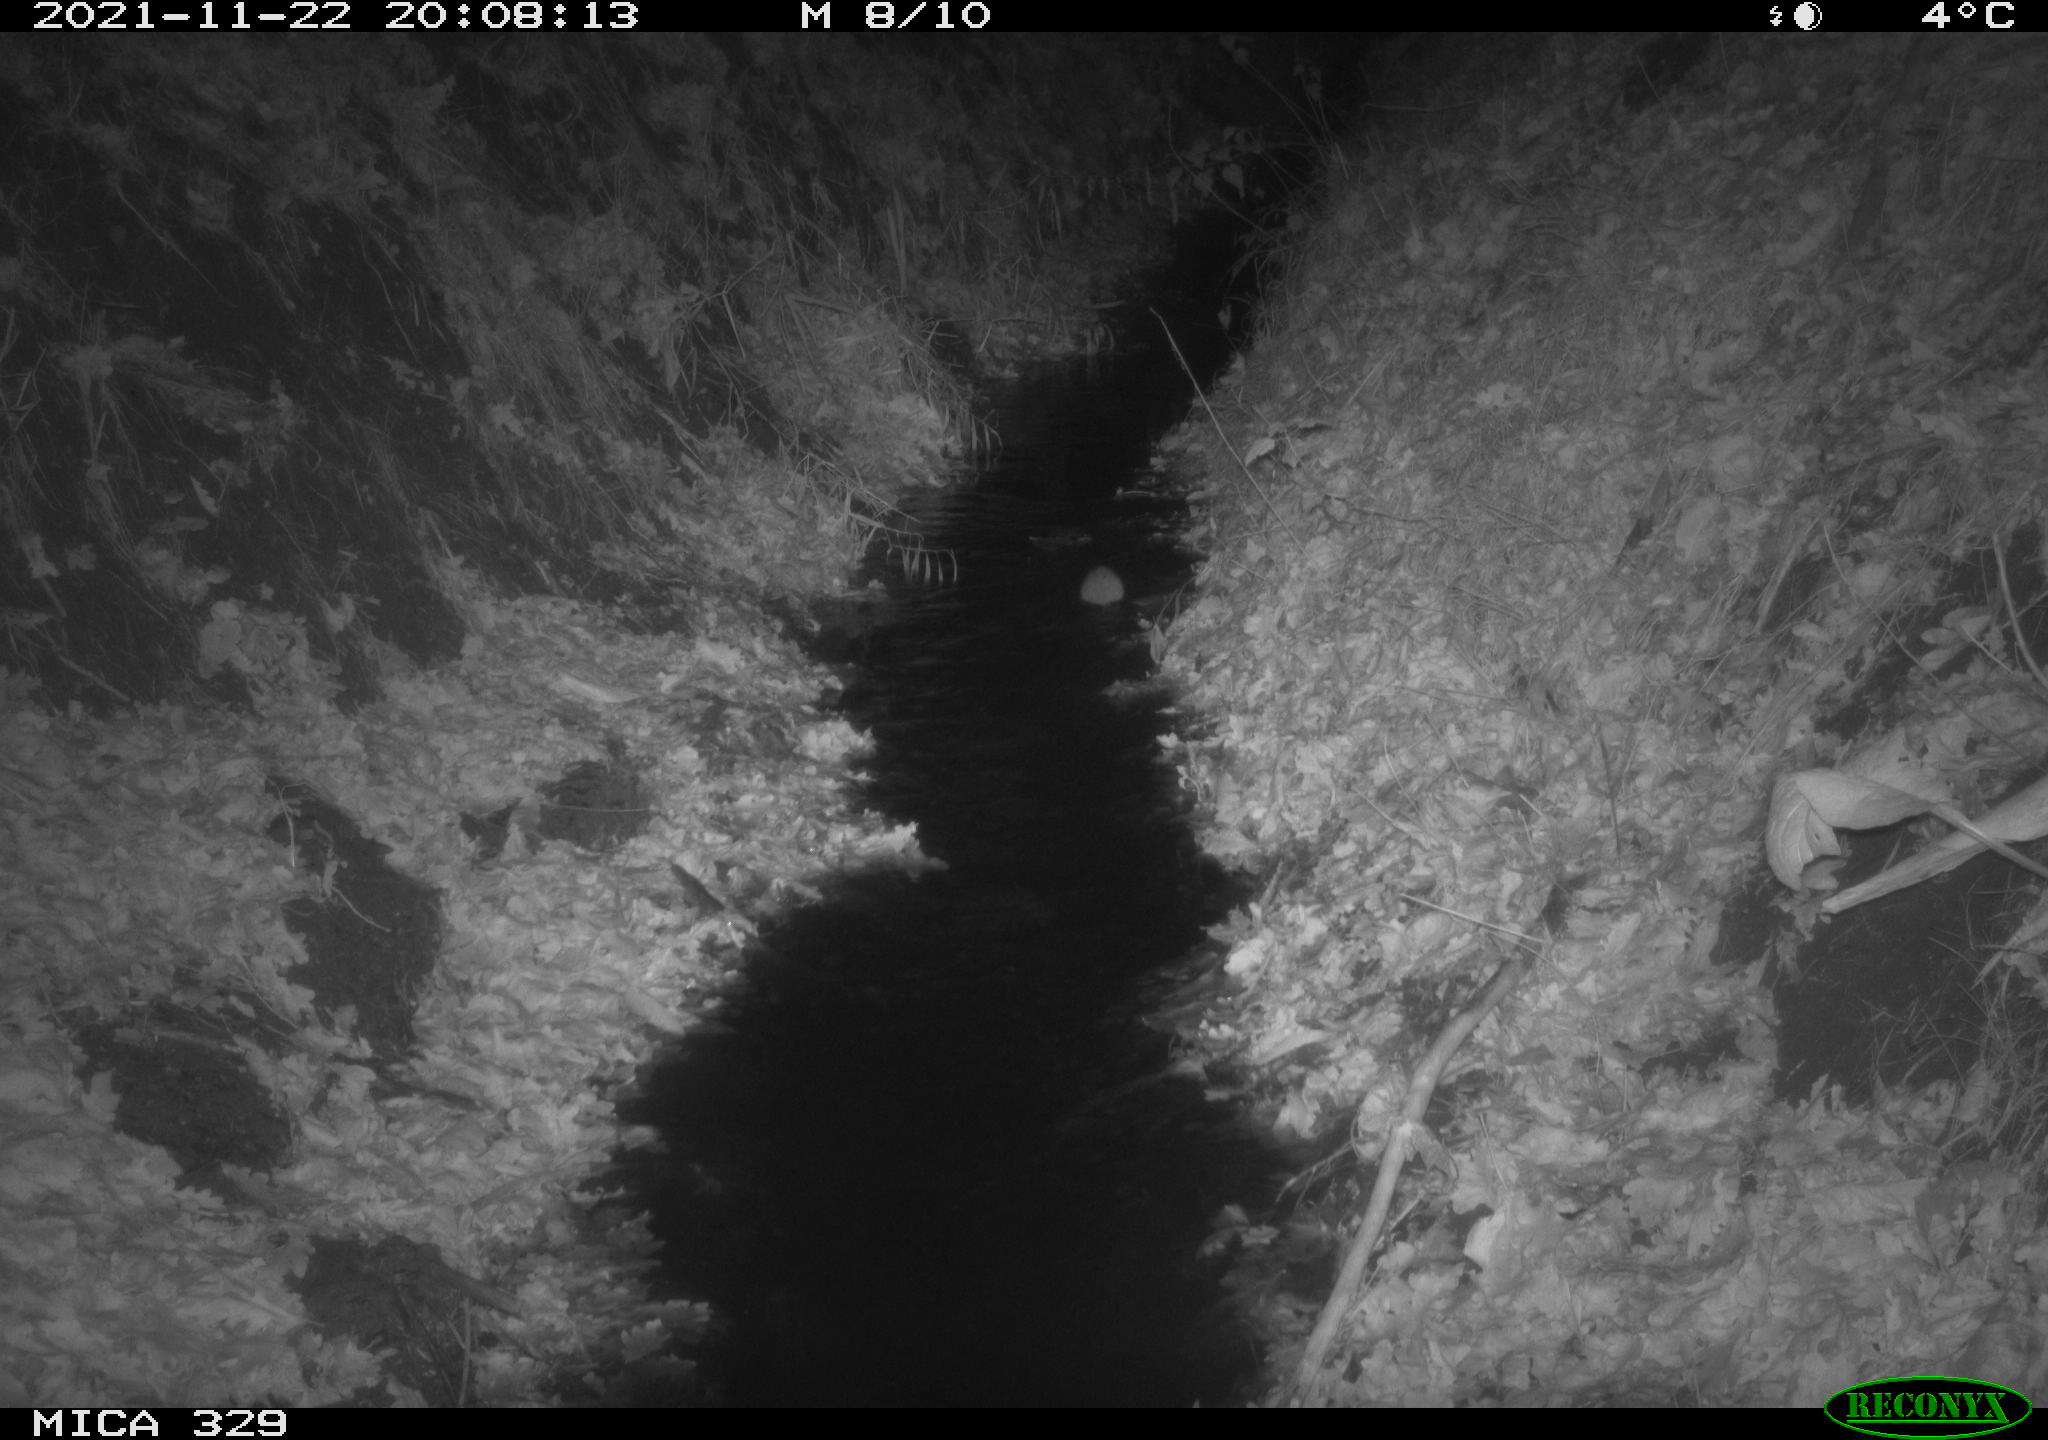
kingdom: Animalia
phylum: Chordata
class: Mammalia
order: Rodentia
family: Muridae
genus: Rattus
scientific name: Rattus norvegicus
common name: Brown rat
